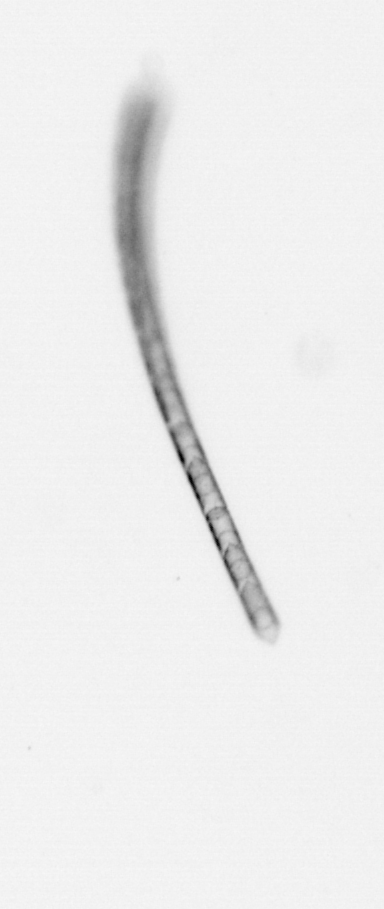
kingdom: Chromista
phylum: Ochrophyta
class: Bacillariophyceae
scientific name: Bacillariophyceae
